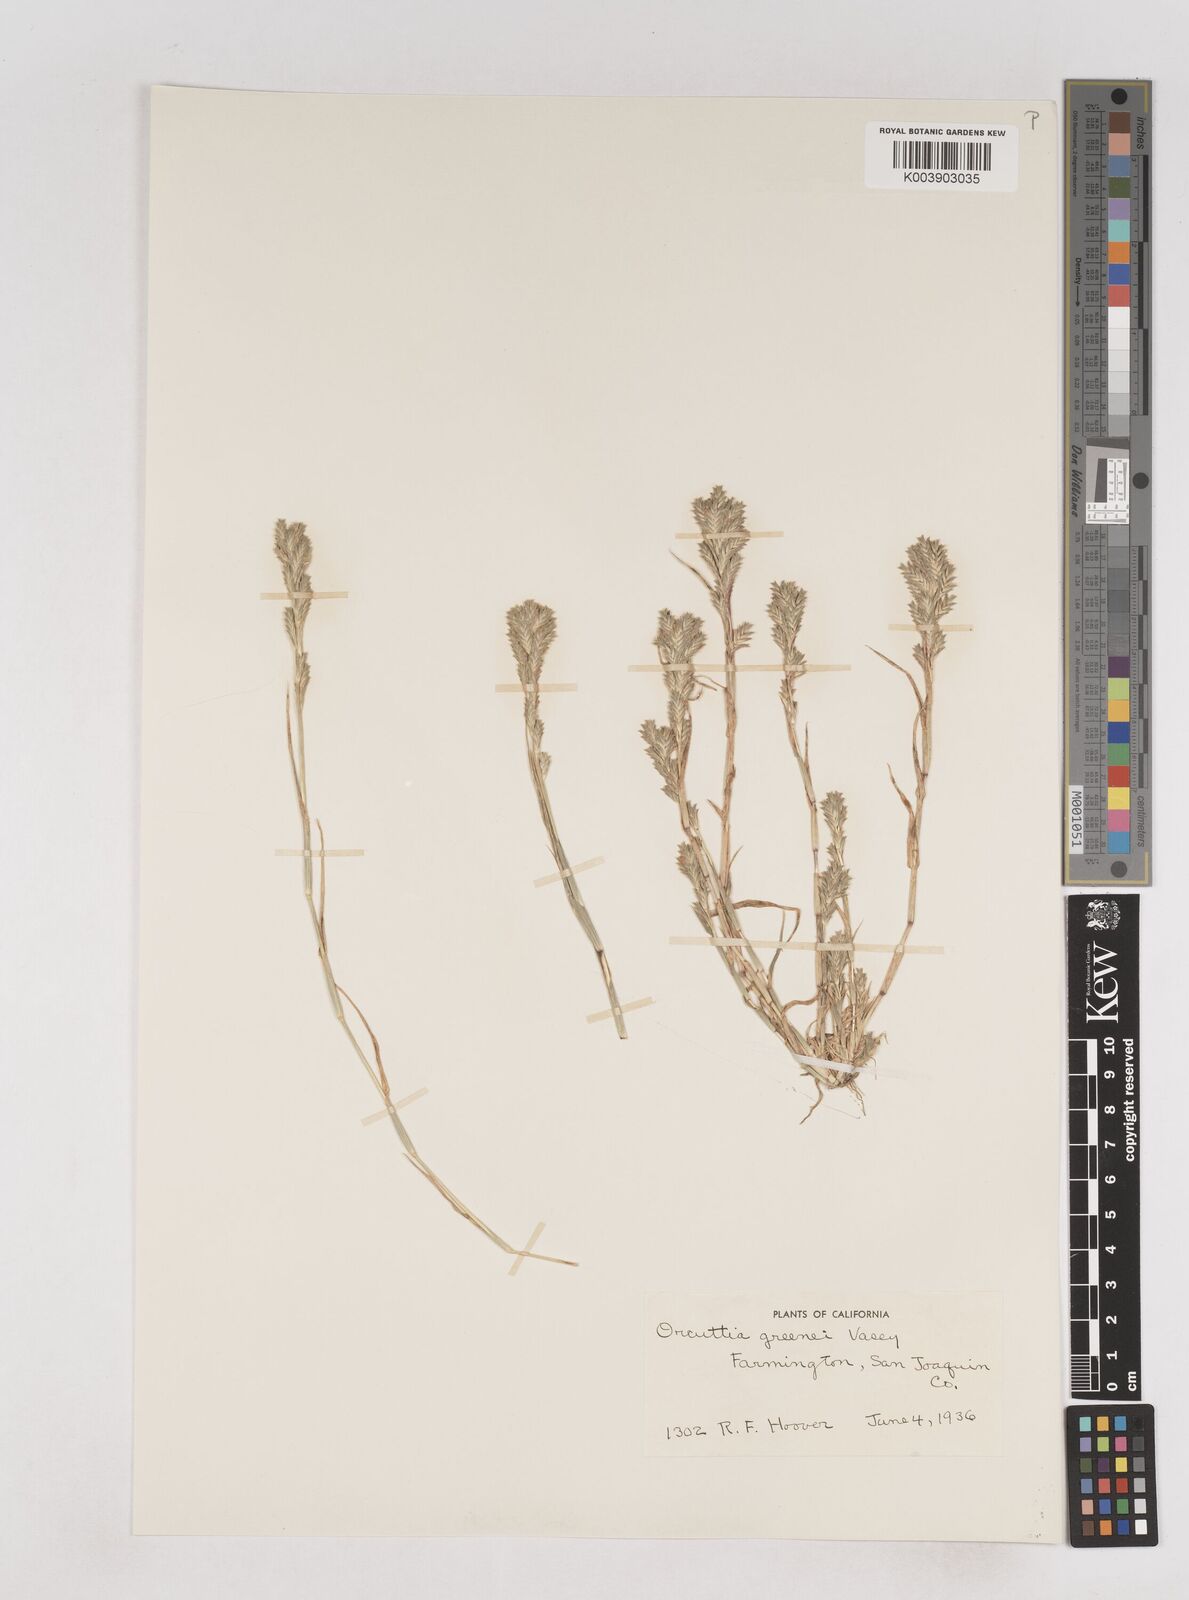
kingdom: Plantae
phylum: Tracheophyta
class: Liliopsida
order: Poales
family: Poaceae
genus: Tuctoria
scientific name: Tuctoria greenei
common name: Awnless spiral grass
